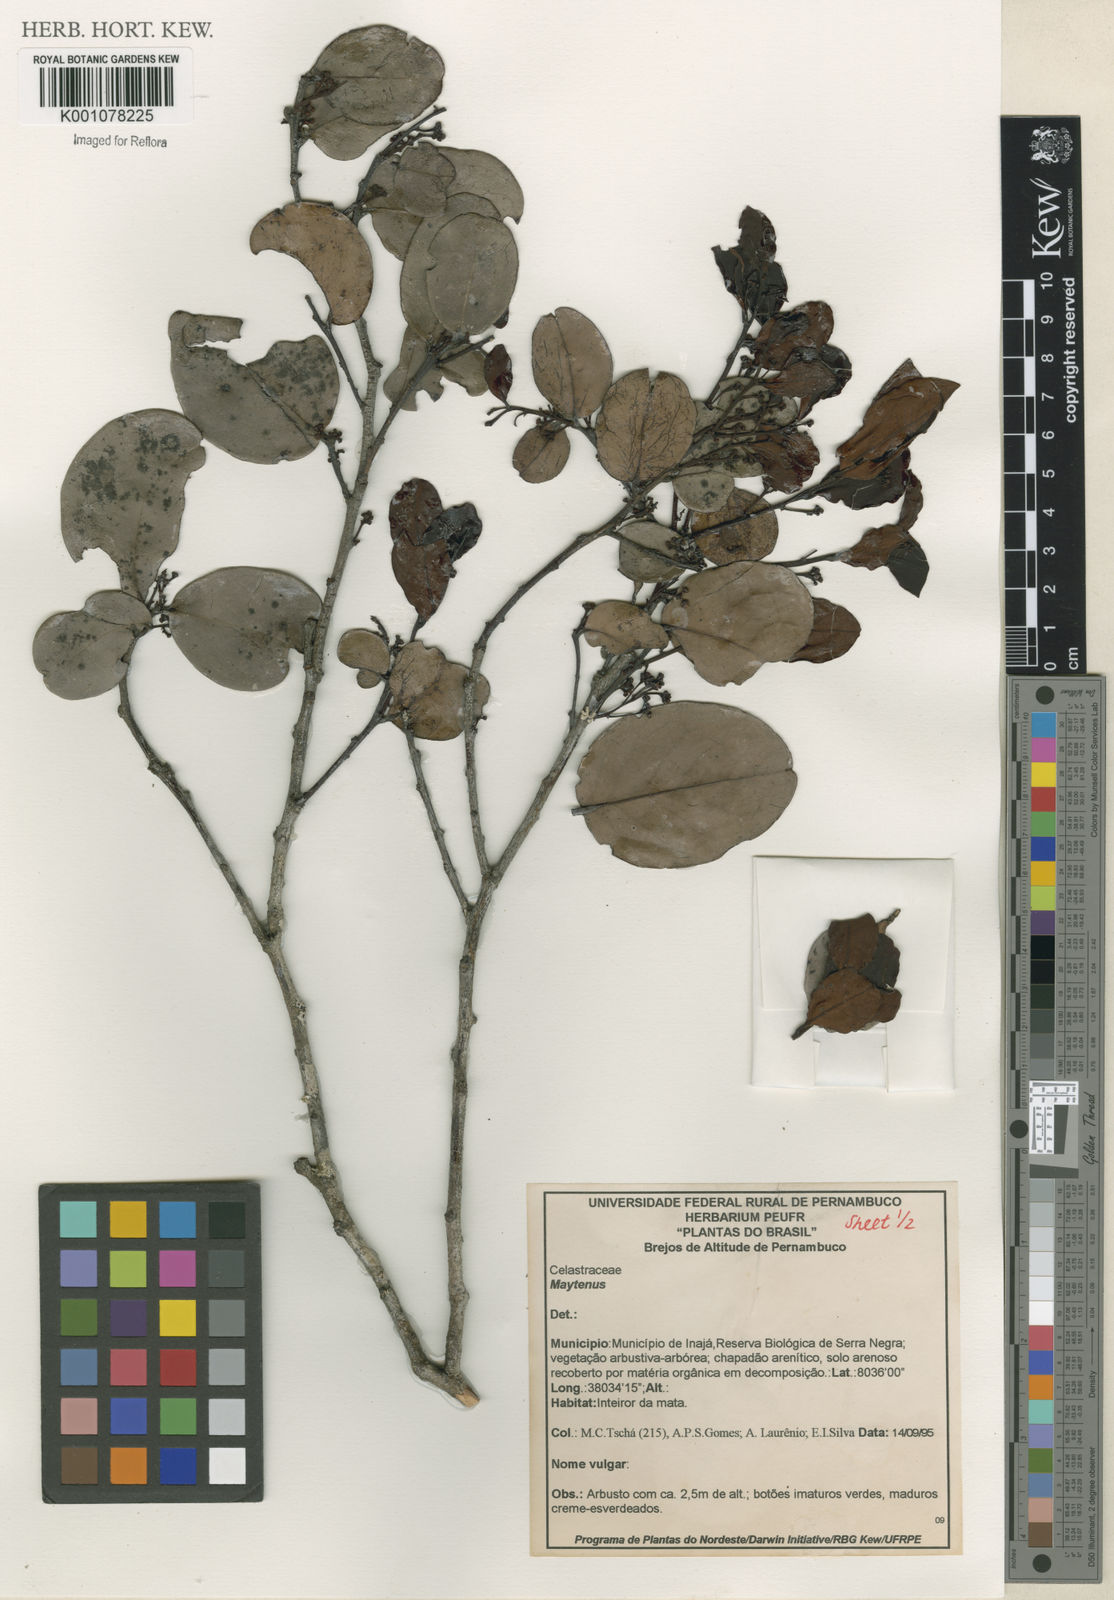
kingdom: Plantae
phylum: Tracheophyta
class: Magnoliopsida
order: Celastrales
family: Celastraceae
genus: Maytenus
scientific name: Maytenus
